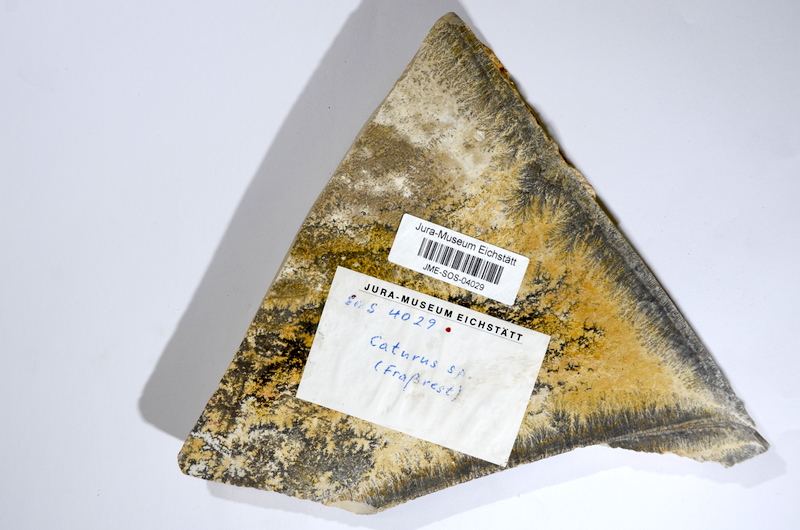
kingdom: Animalia
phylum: Chordata
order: Amiiformes
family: Caturidae
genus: Caturus
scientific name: Caturus
